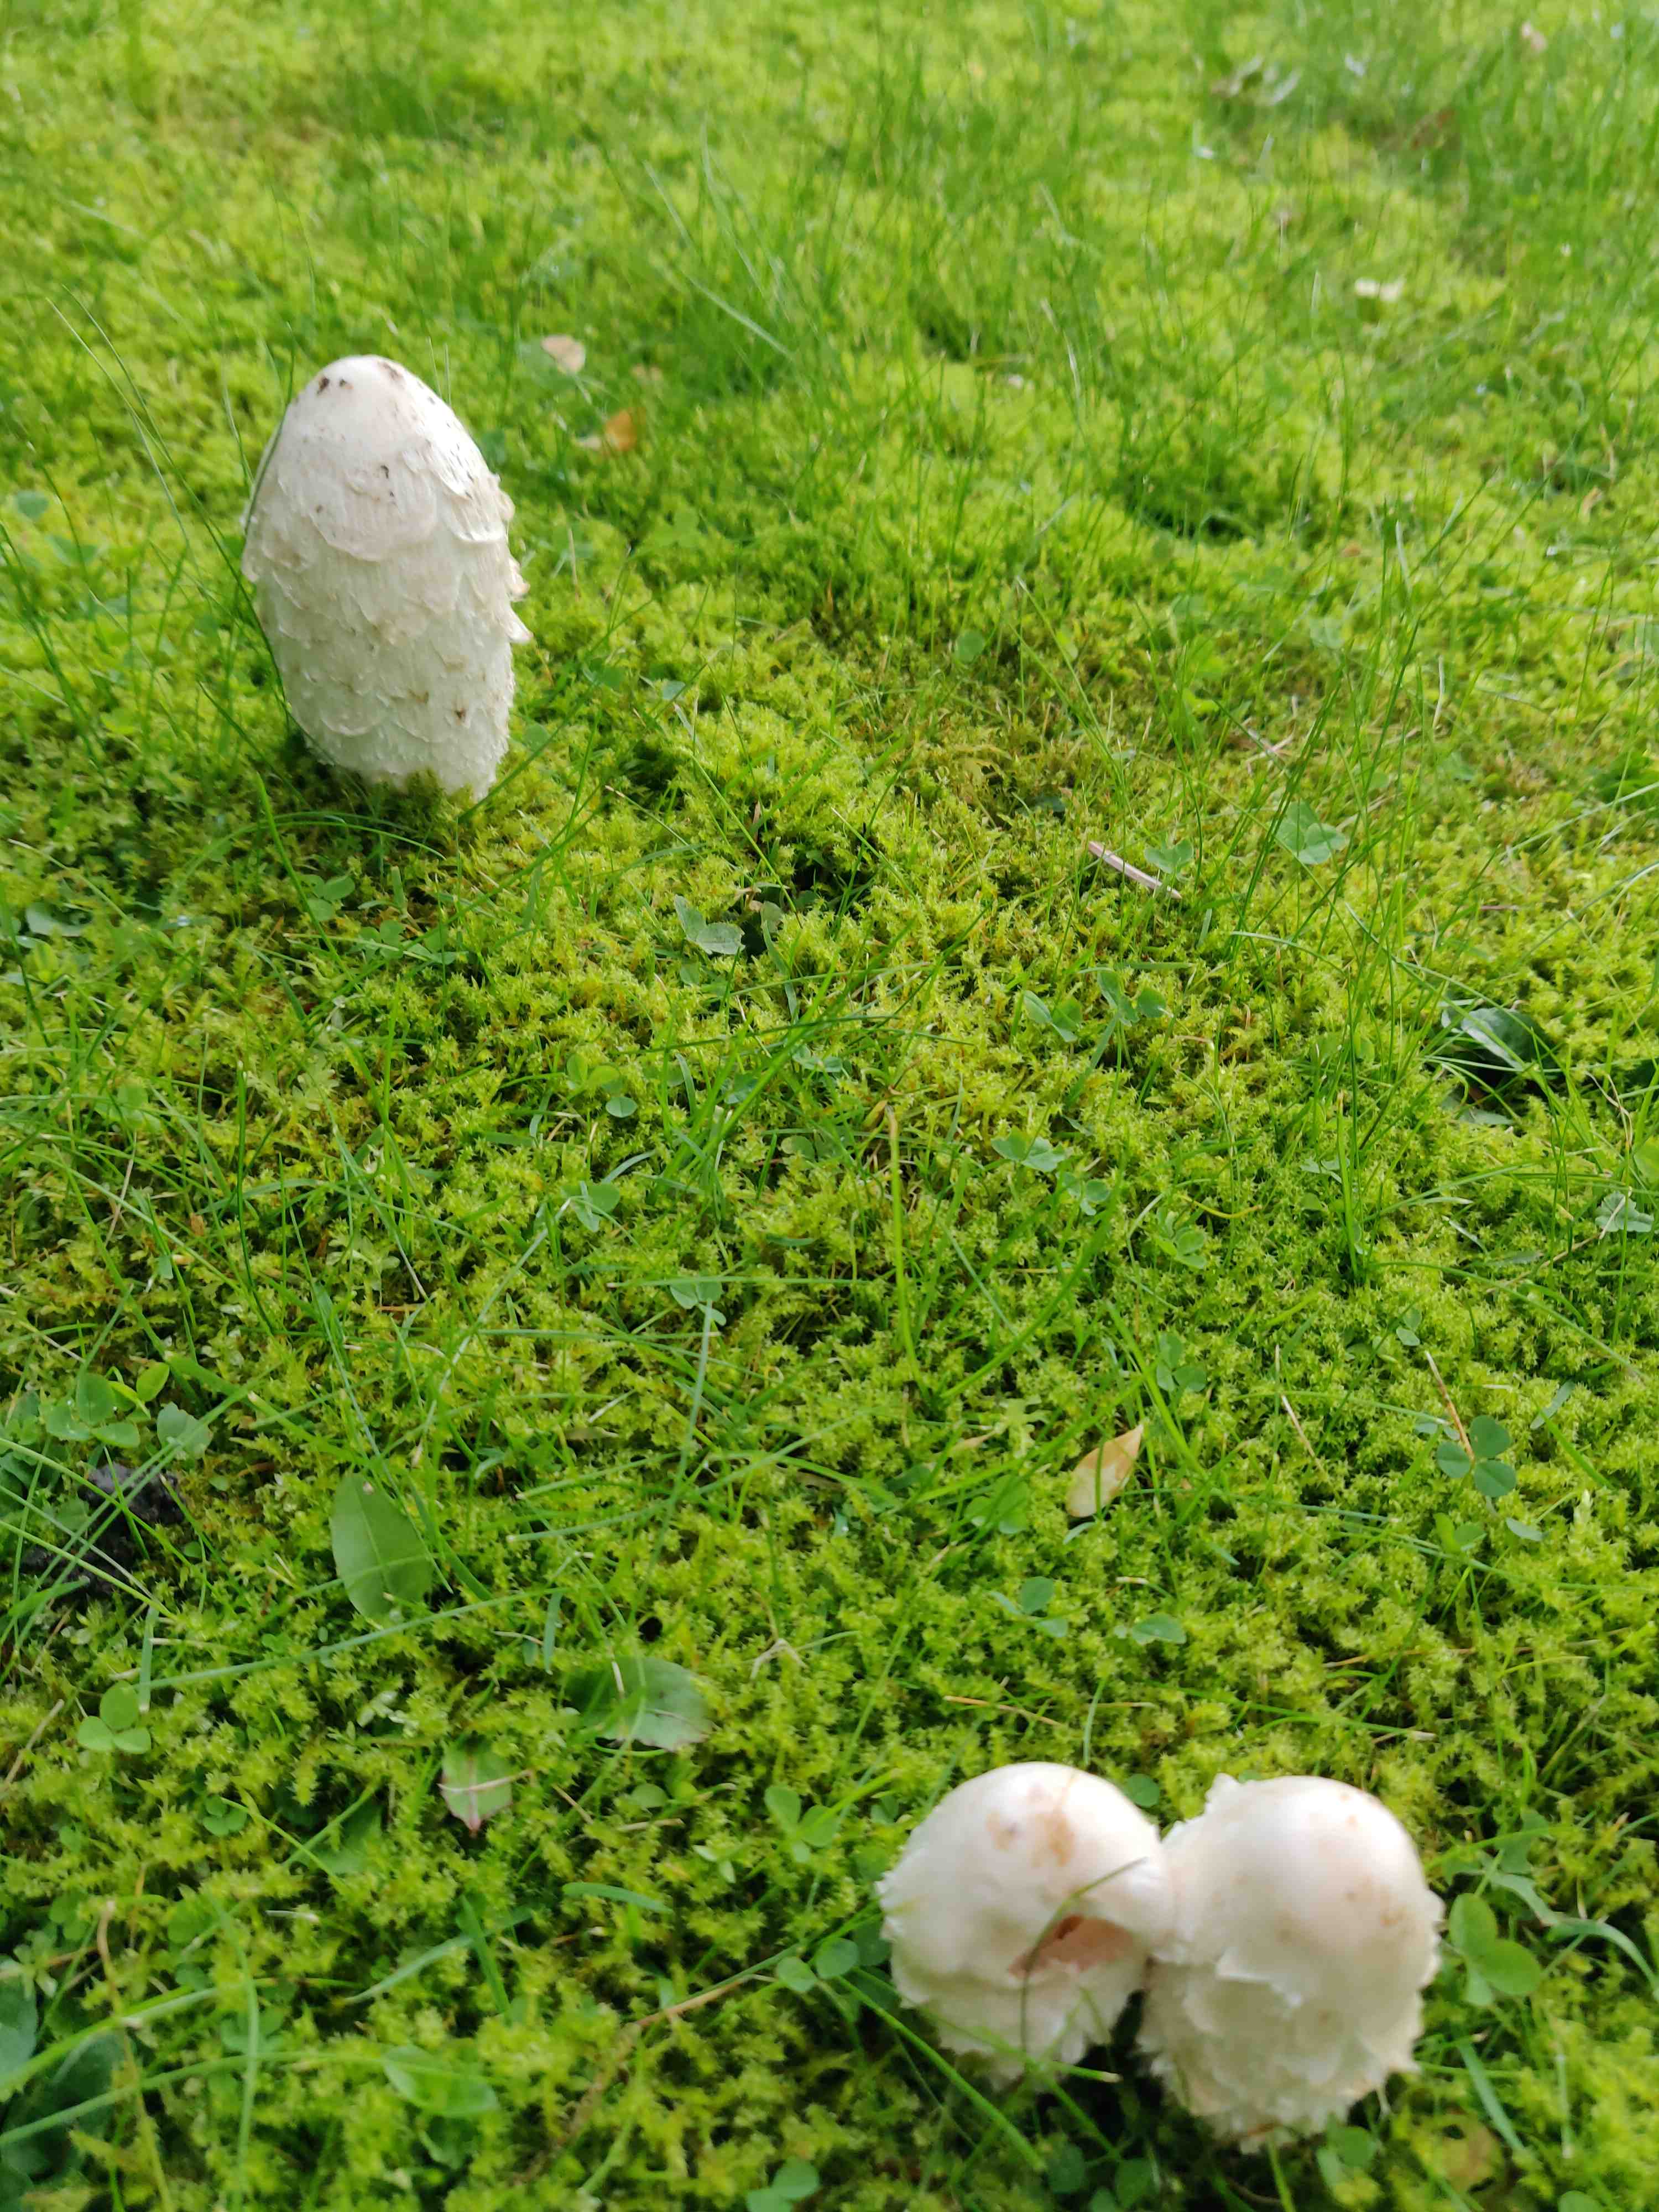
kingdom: Fungi
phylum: Basidiomycota
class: Agaricomycetes
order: Agaricales
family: Agaricaceae
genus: Coprinus
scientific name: Coprinus comatus
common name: stor parykhat
